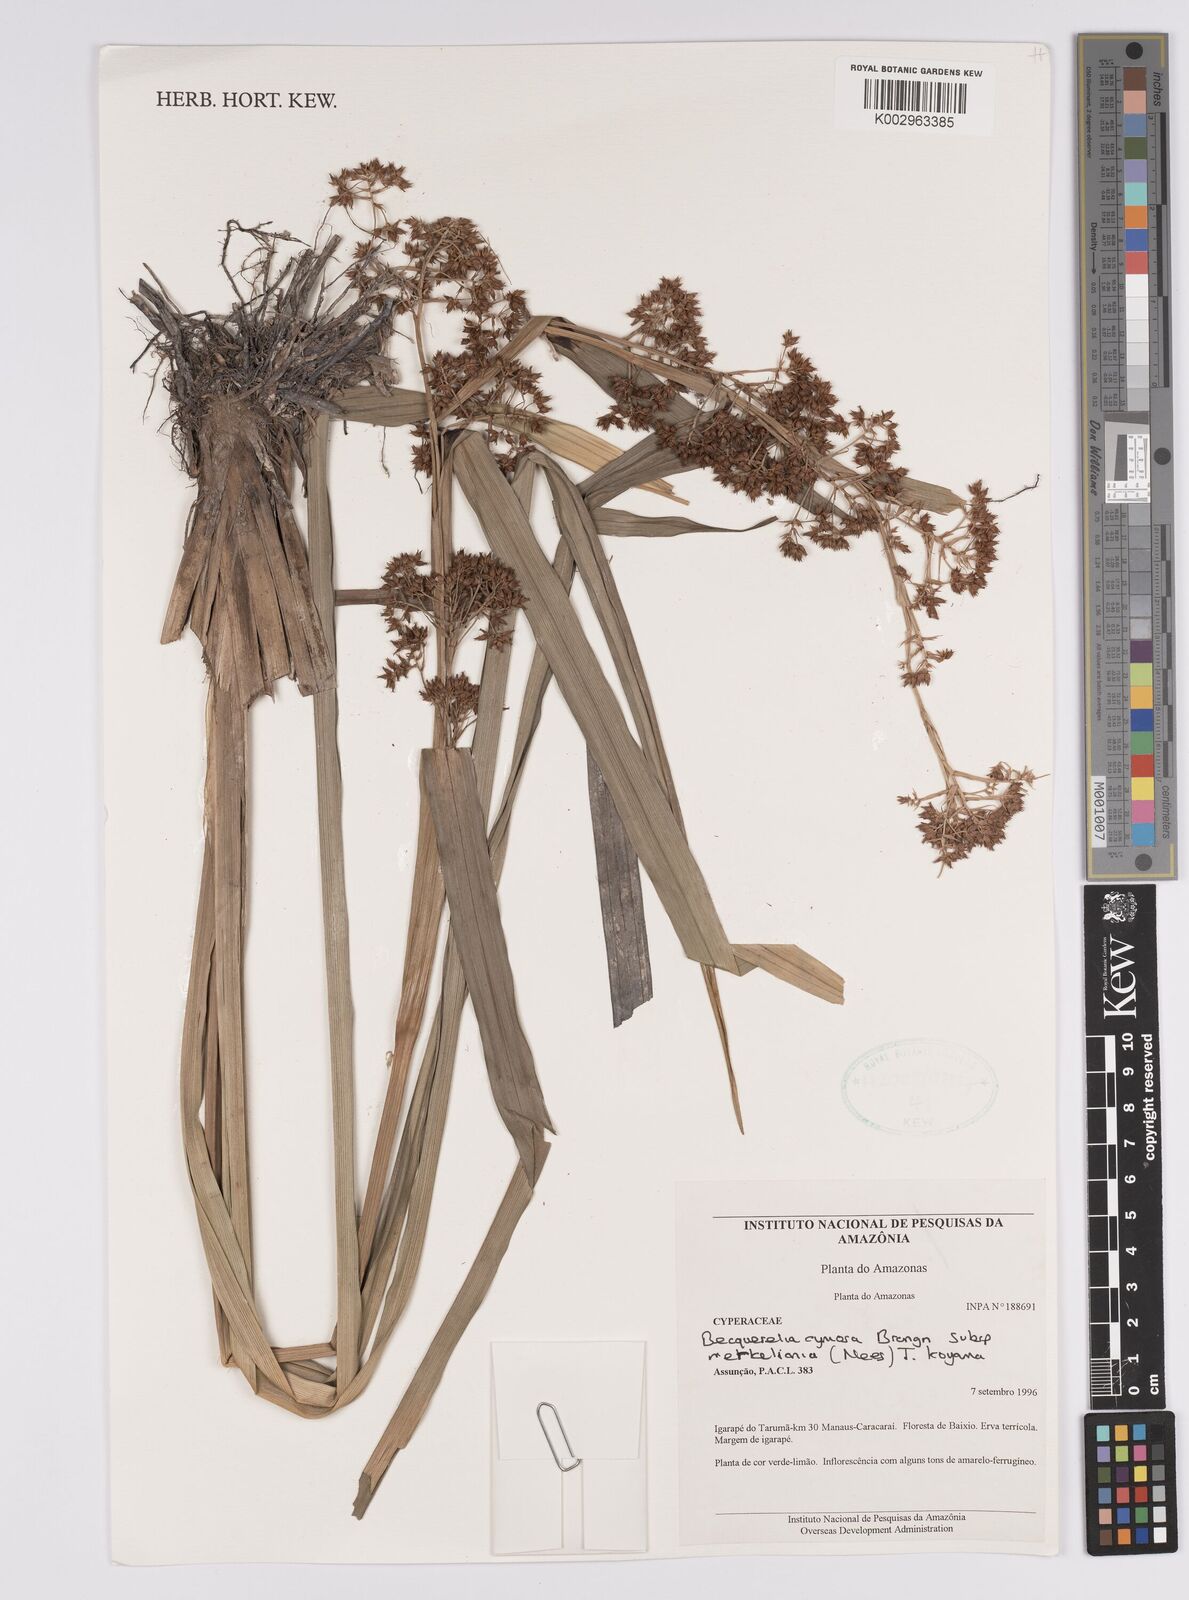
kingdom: Plantae
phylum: Tracheophyta
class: Liliopsida
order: Poales
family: Cyperaceae
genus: Becquerelia
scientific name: Becquerelia merkeliana
